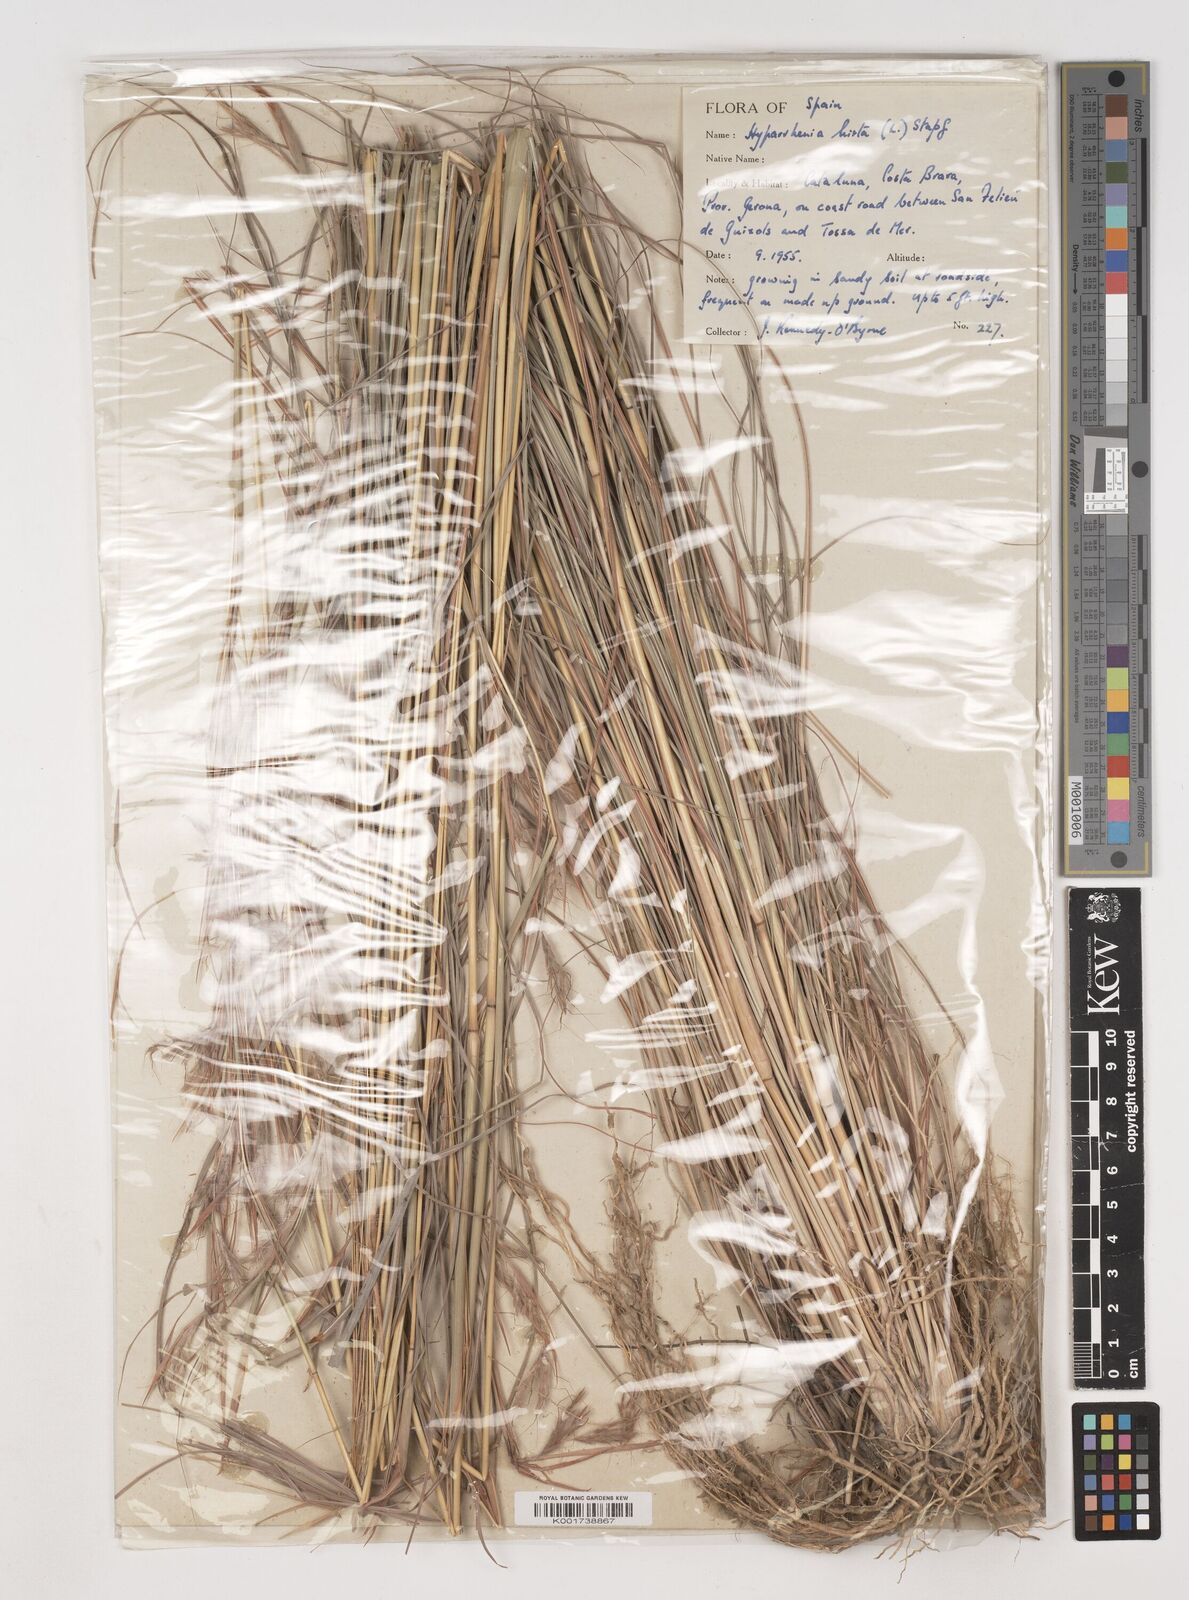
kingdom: Plantae
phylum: Tracheophyta
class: Liliopsida
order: Poales
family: Poaceae
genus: Hyparrhenia
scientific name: Hyparrhenia hirta
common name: Thatching grass
